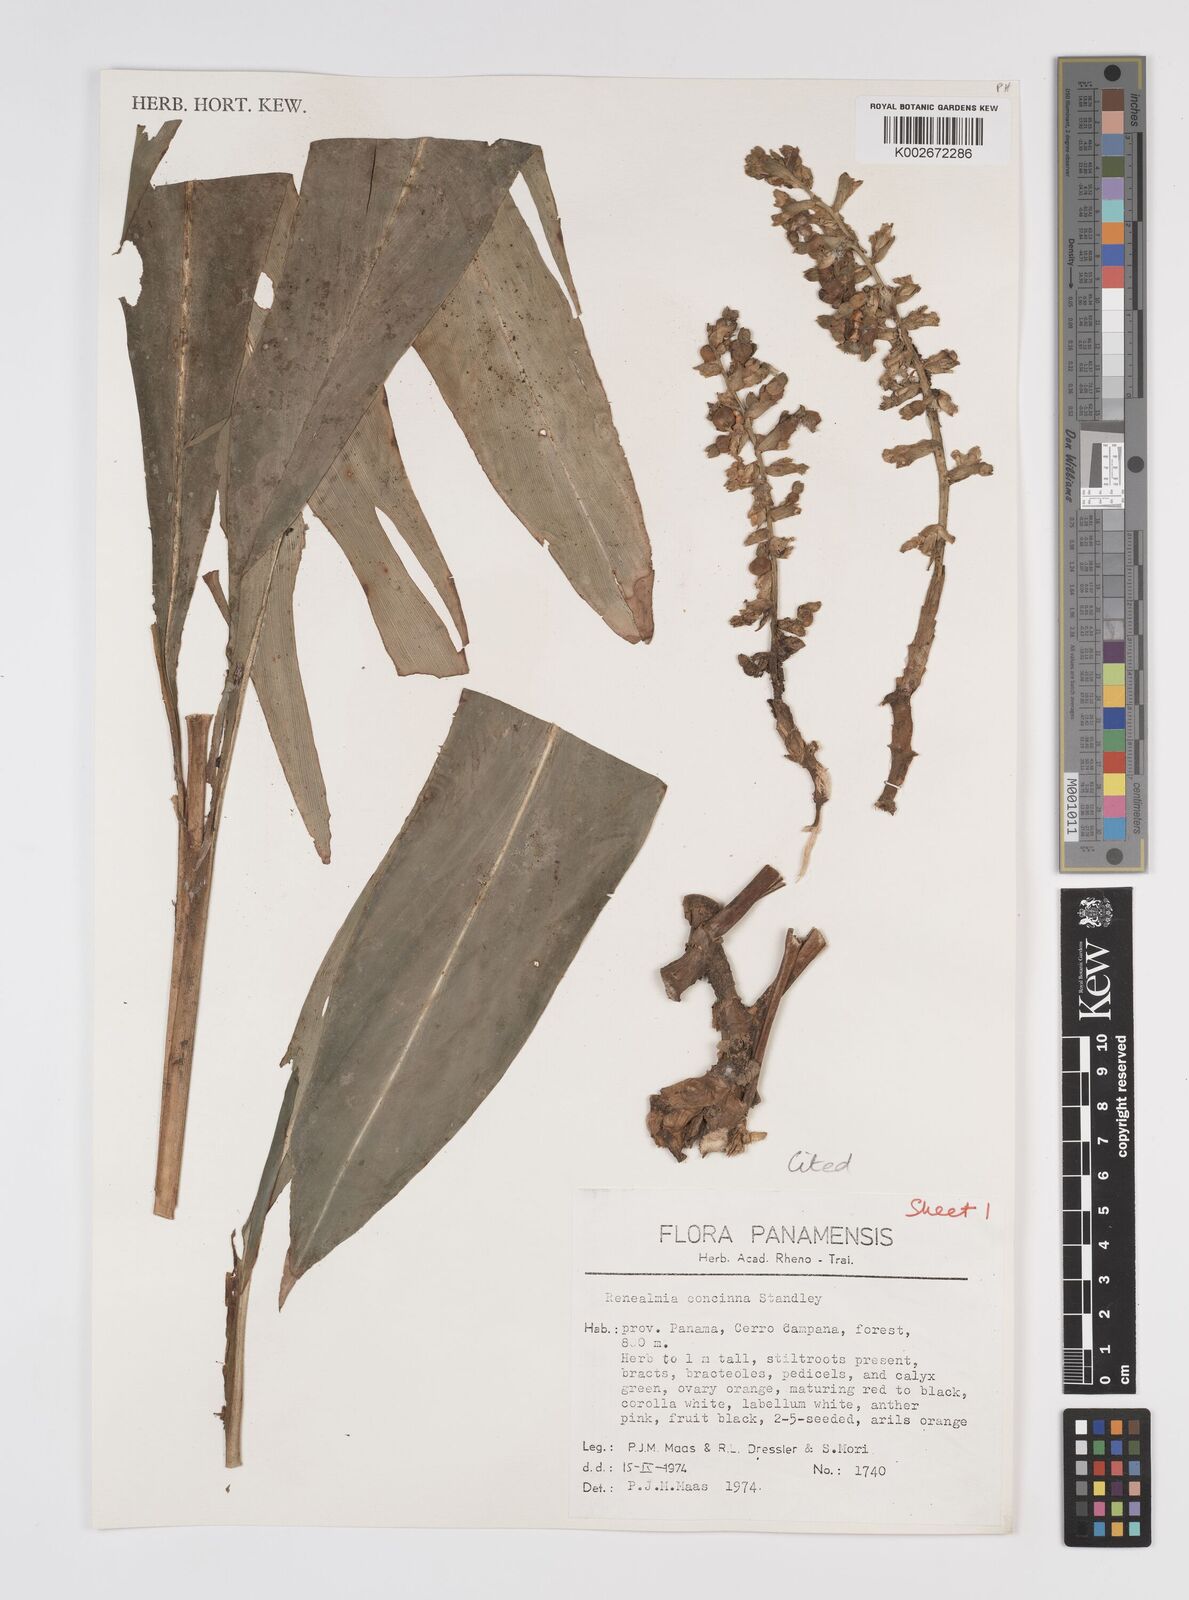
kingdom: Plantae
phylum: Tracheophyta
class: Liliopsida
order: Zingiberales
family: Zingiberaceae
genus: Renealmia
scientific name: Renealmia concinna
